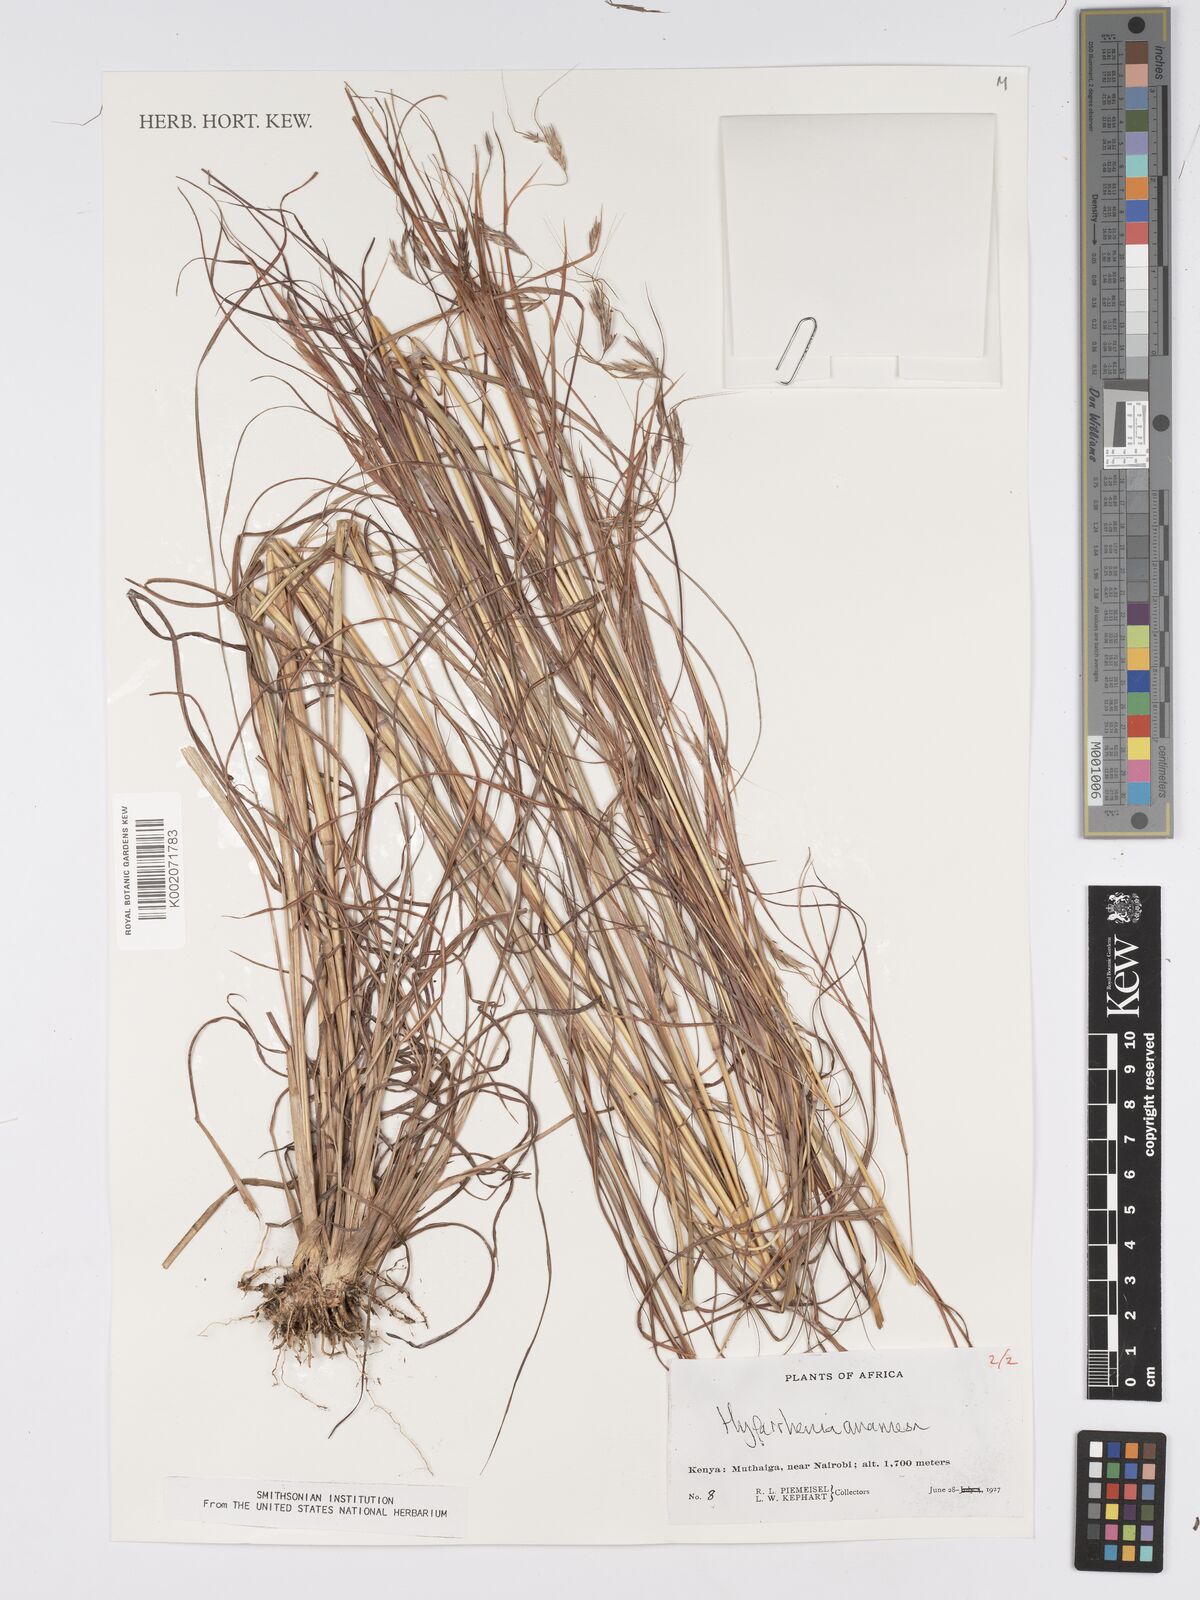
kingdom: Plantae
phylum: Tracheophyta
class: Liliopsida
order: Poales
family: Poaceae
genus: Hyparrhenia
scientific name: Hyparrhenia anamesa
